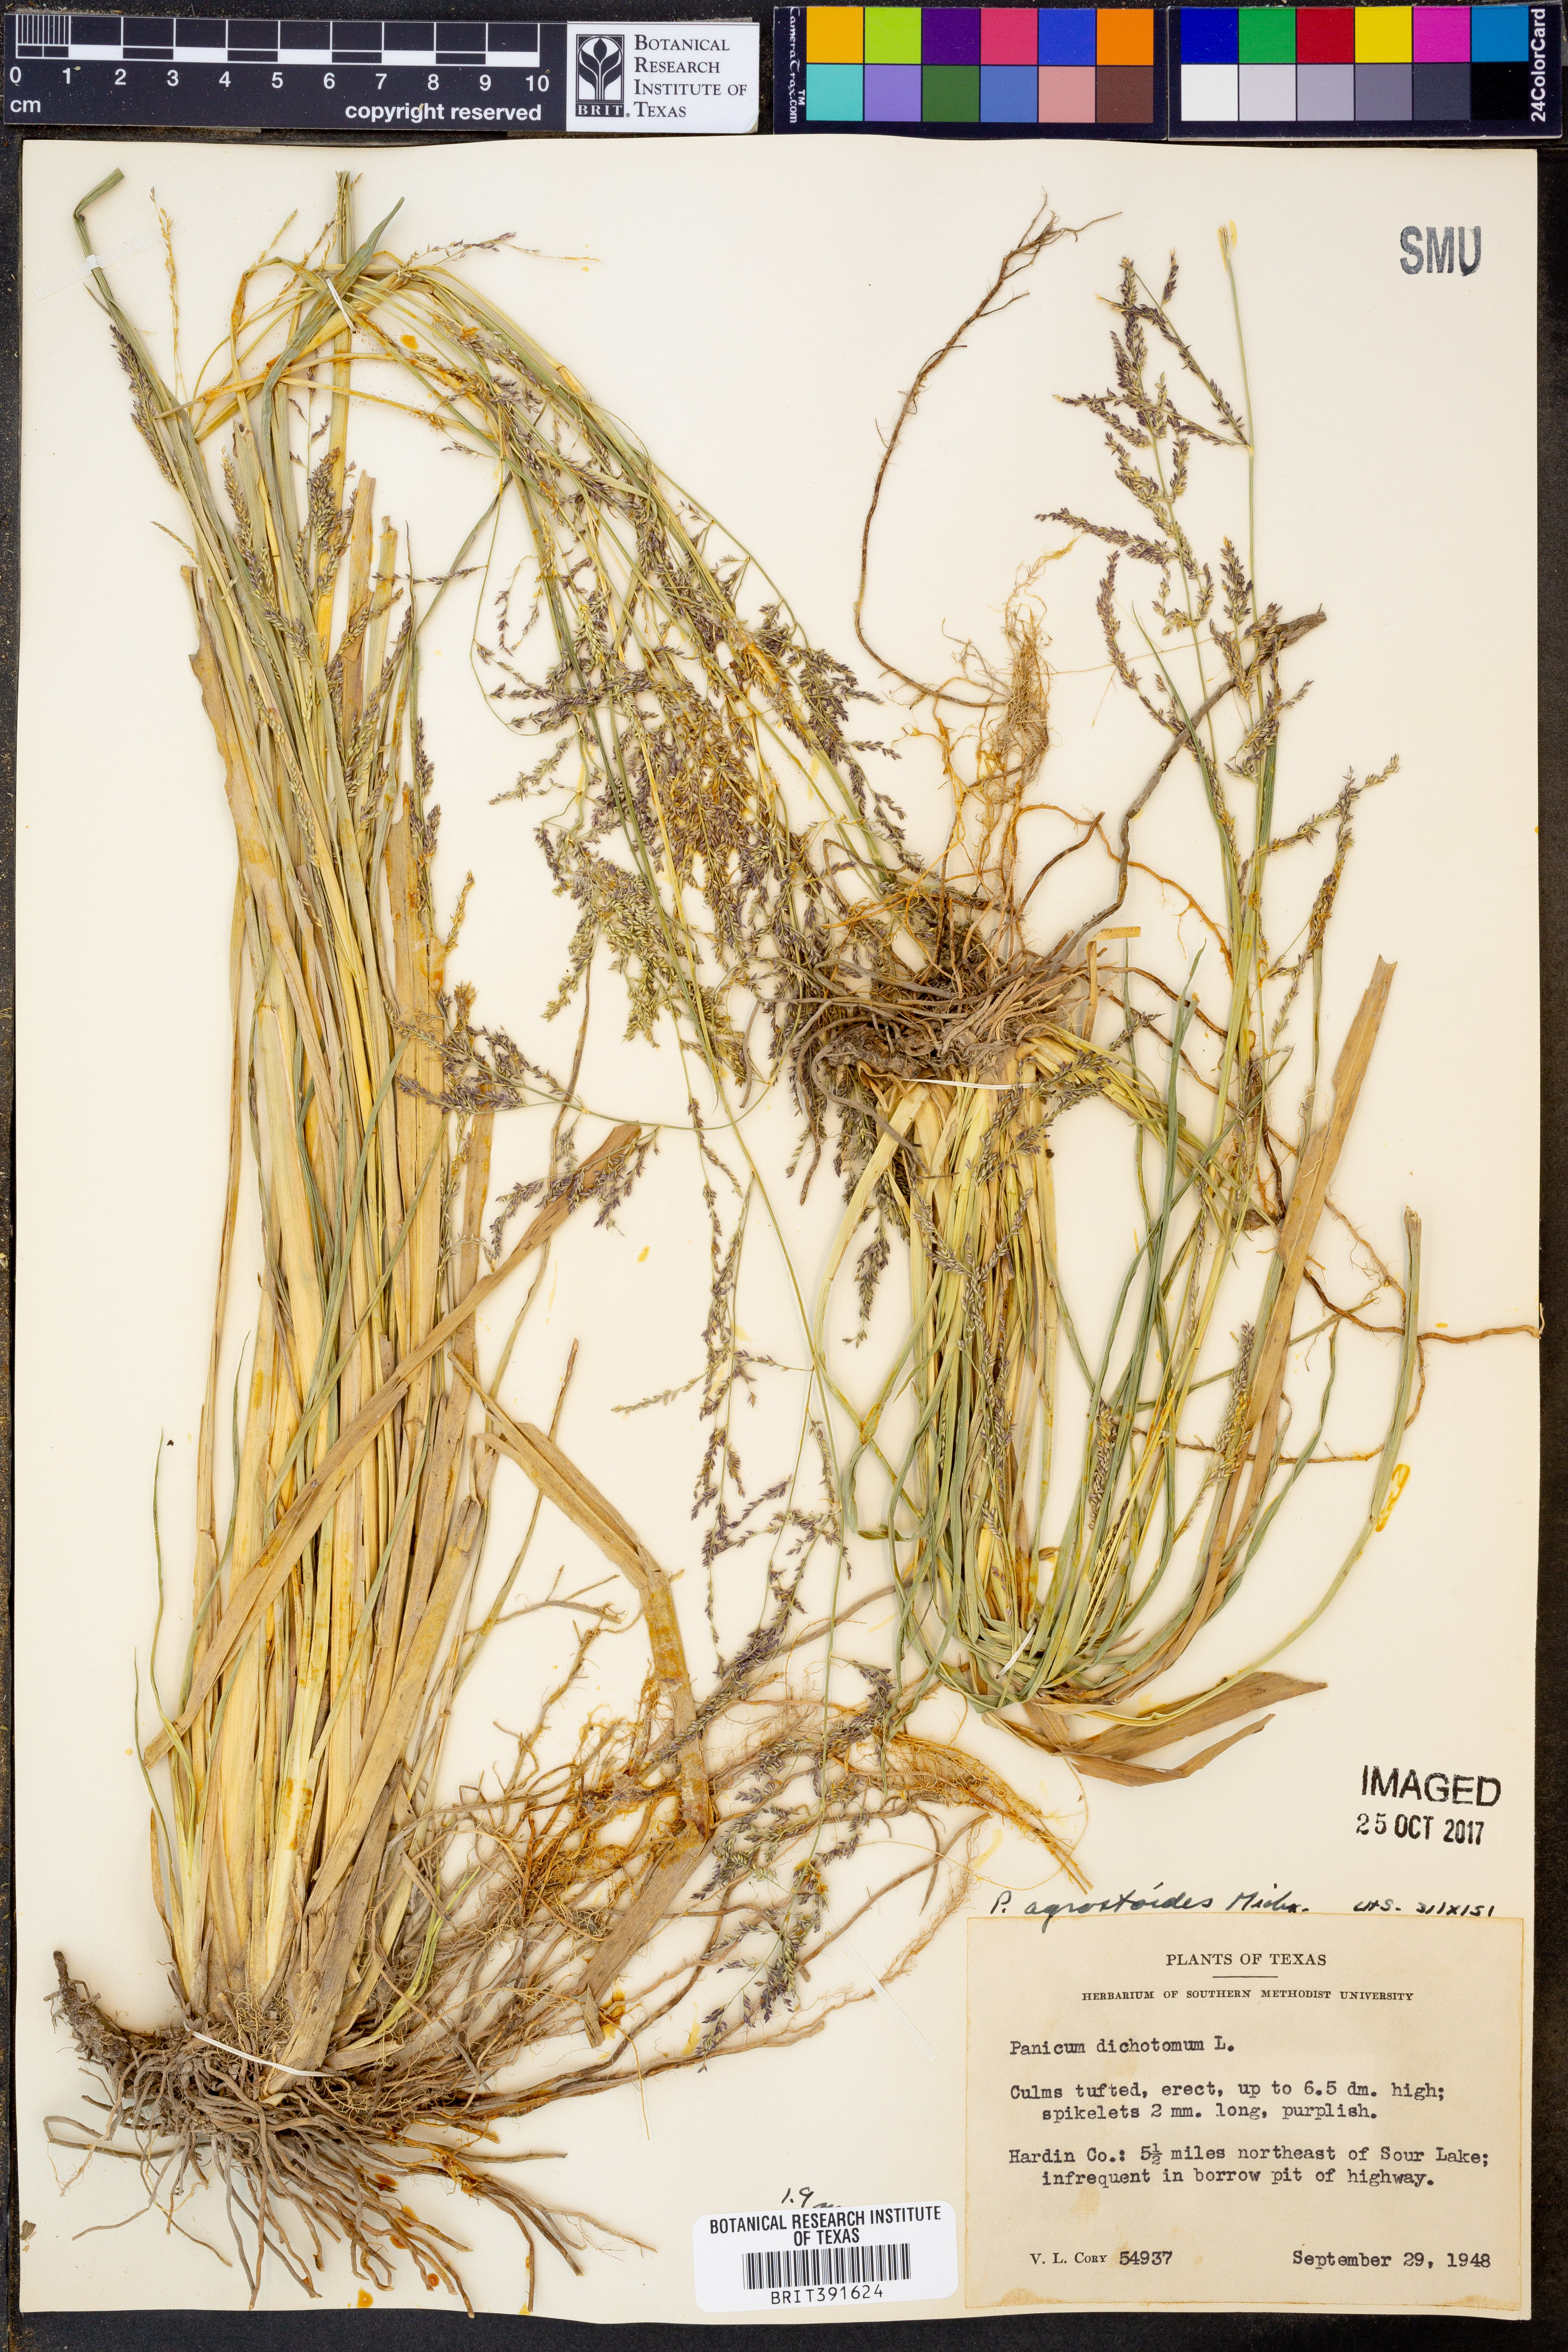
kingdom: Plantae
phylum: Tracheophyta
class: Liliopsida
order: Poales
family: Poaceae
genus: Steinchisma
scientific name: Steinchisma laxum
